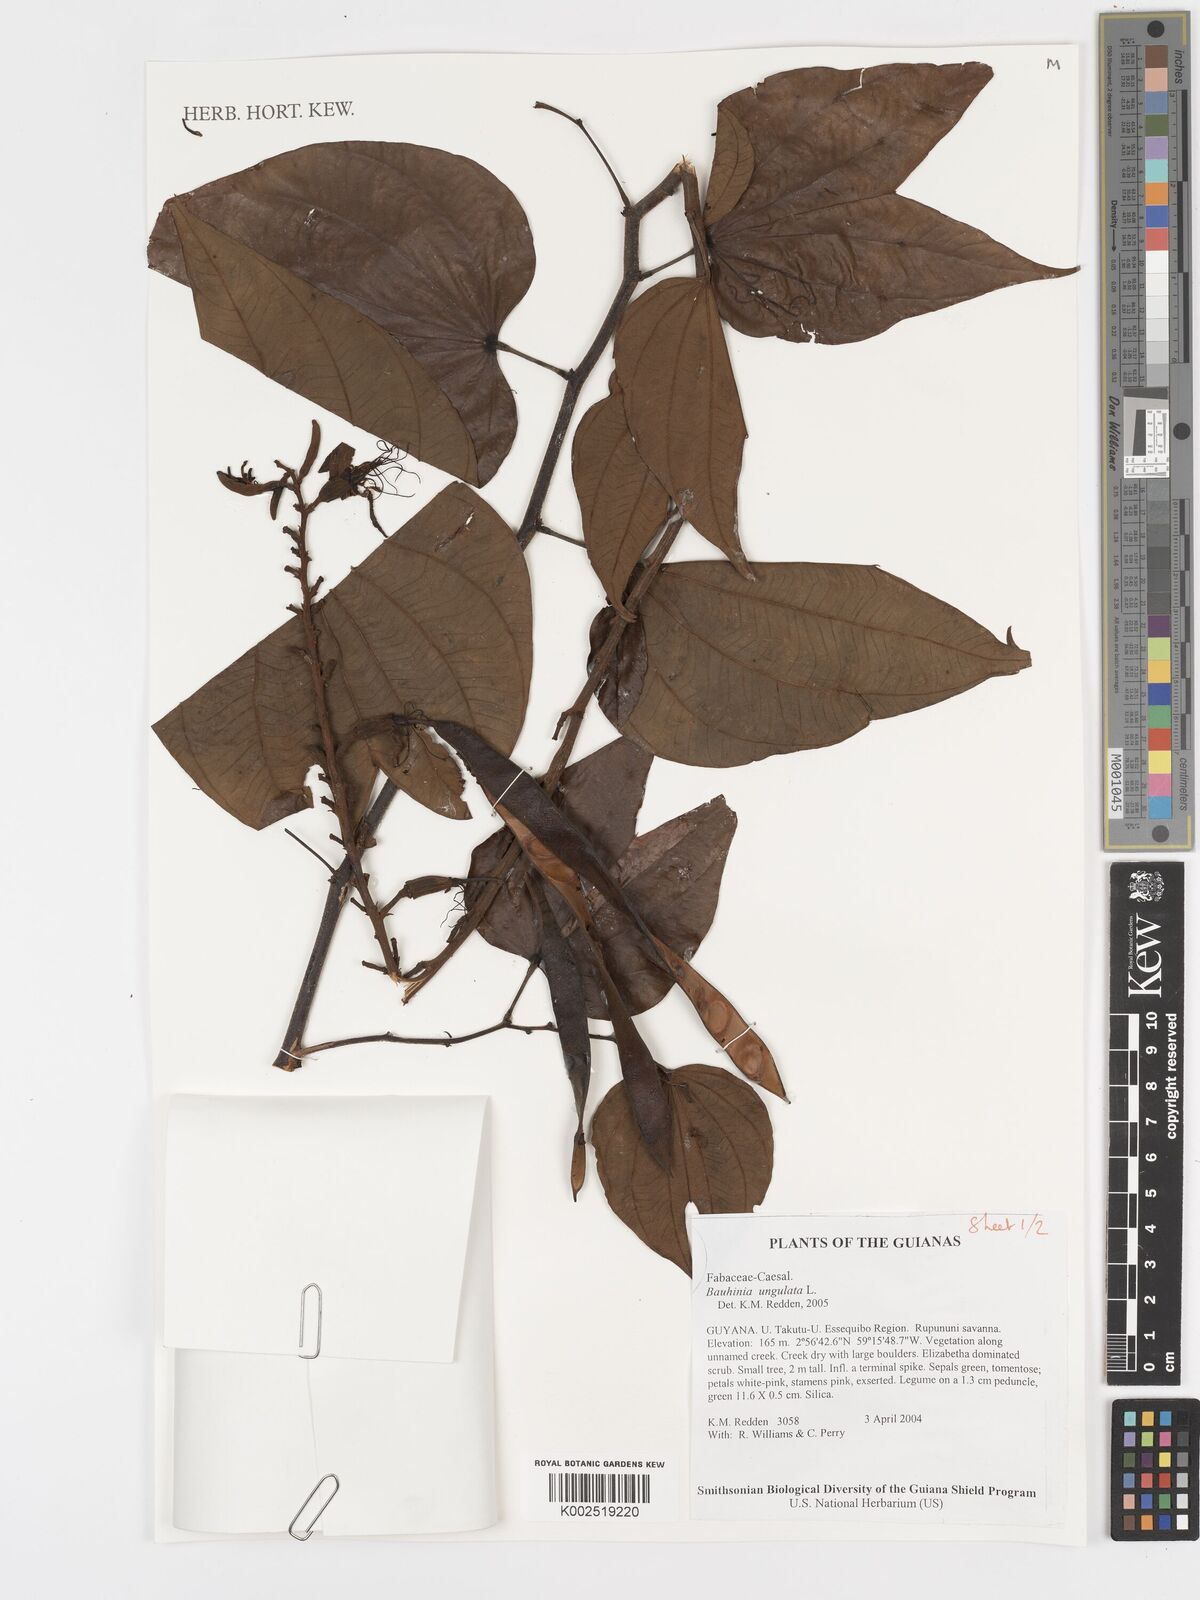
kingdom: Plantae
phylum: Tracheophyta
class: Magnoliopsida
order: Fabales
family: Fabaceae
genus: Bauhinia
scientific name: Bauhinia ungulata
